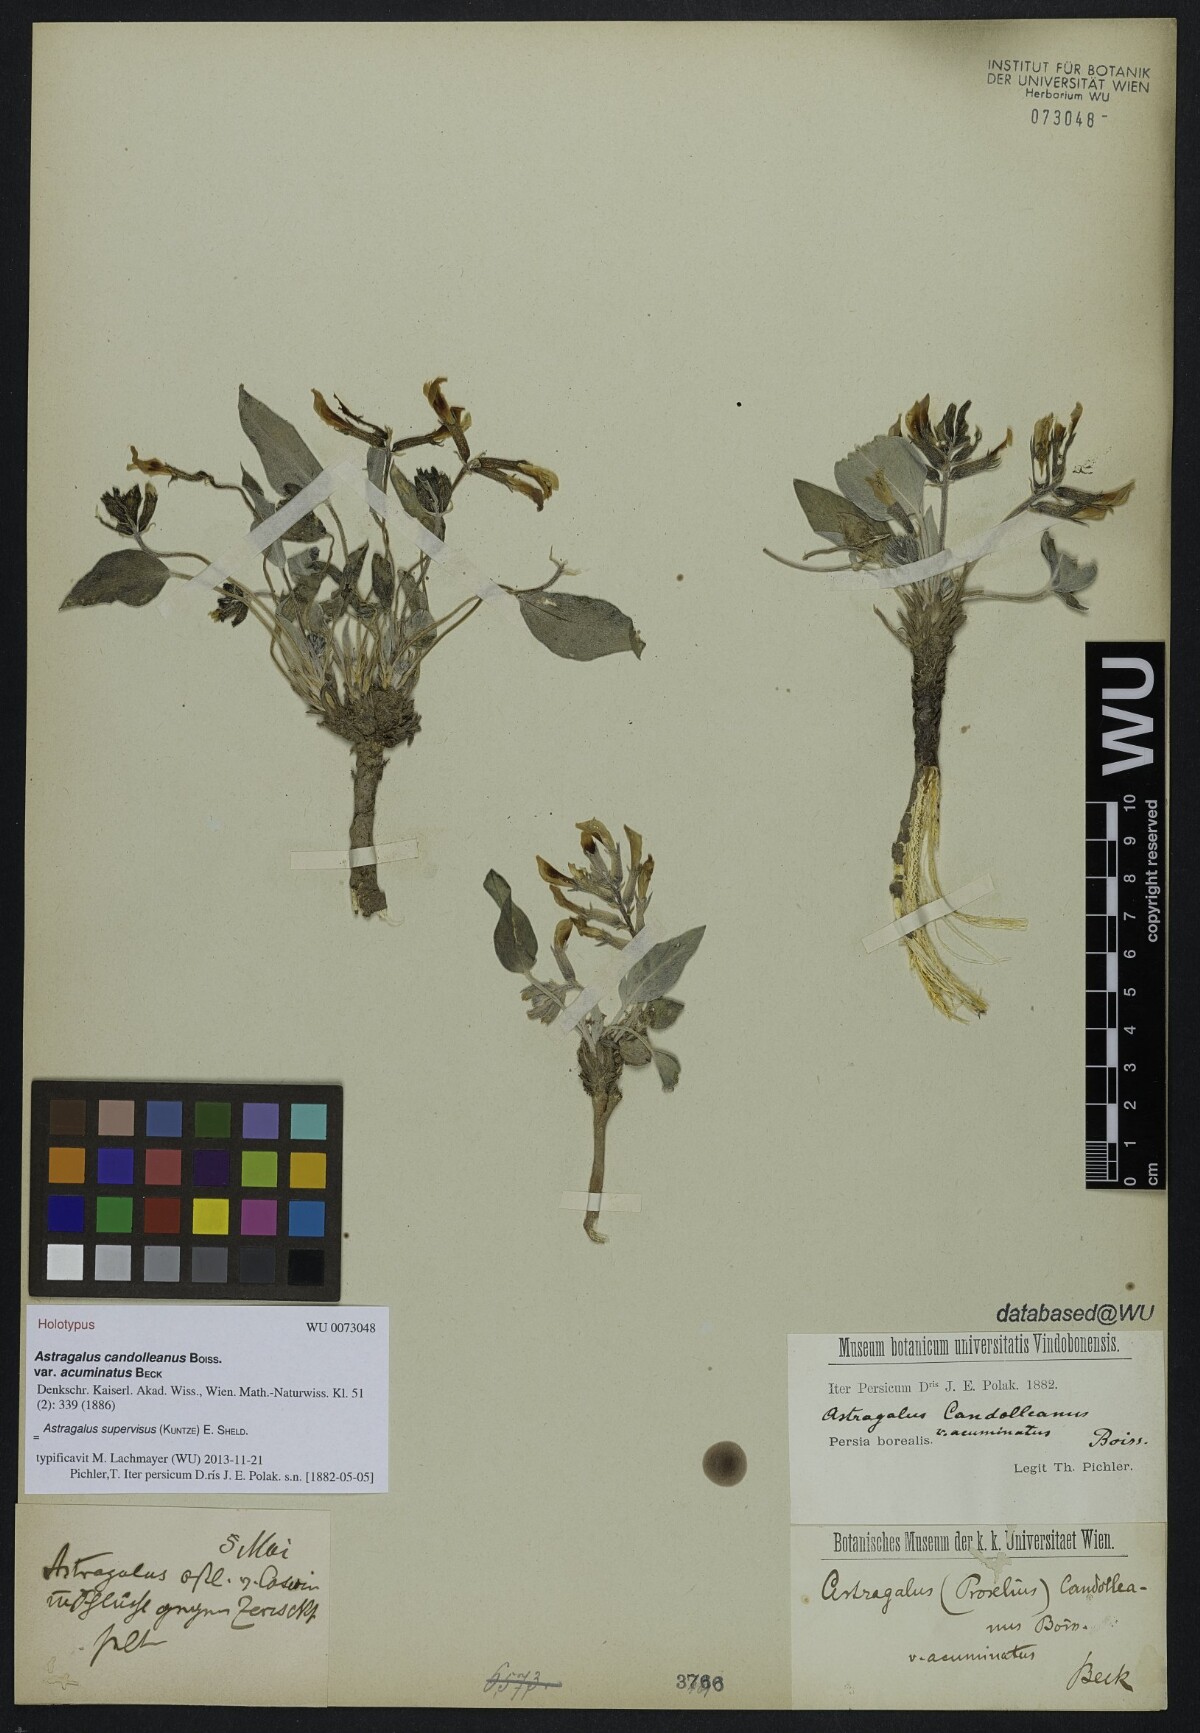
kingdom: Plantae
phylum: Tracheophyta
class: Magnoliopsida
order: Fabales
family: Fabaceae
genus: Astragalus
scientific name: Astragalus supervisus
